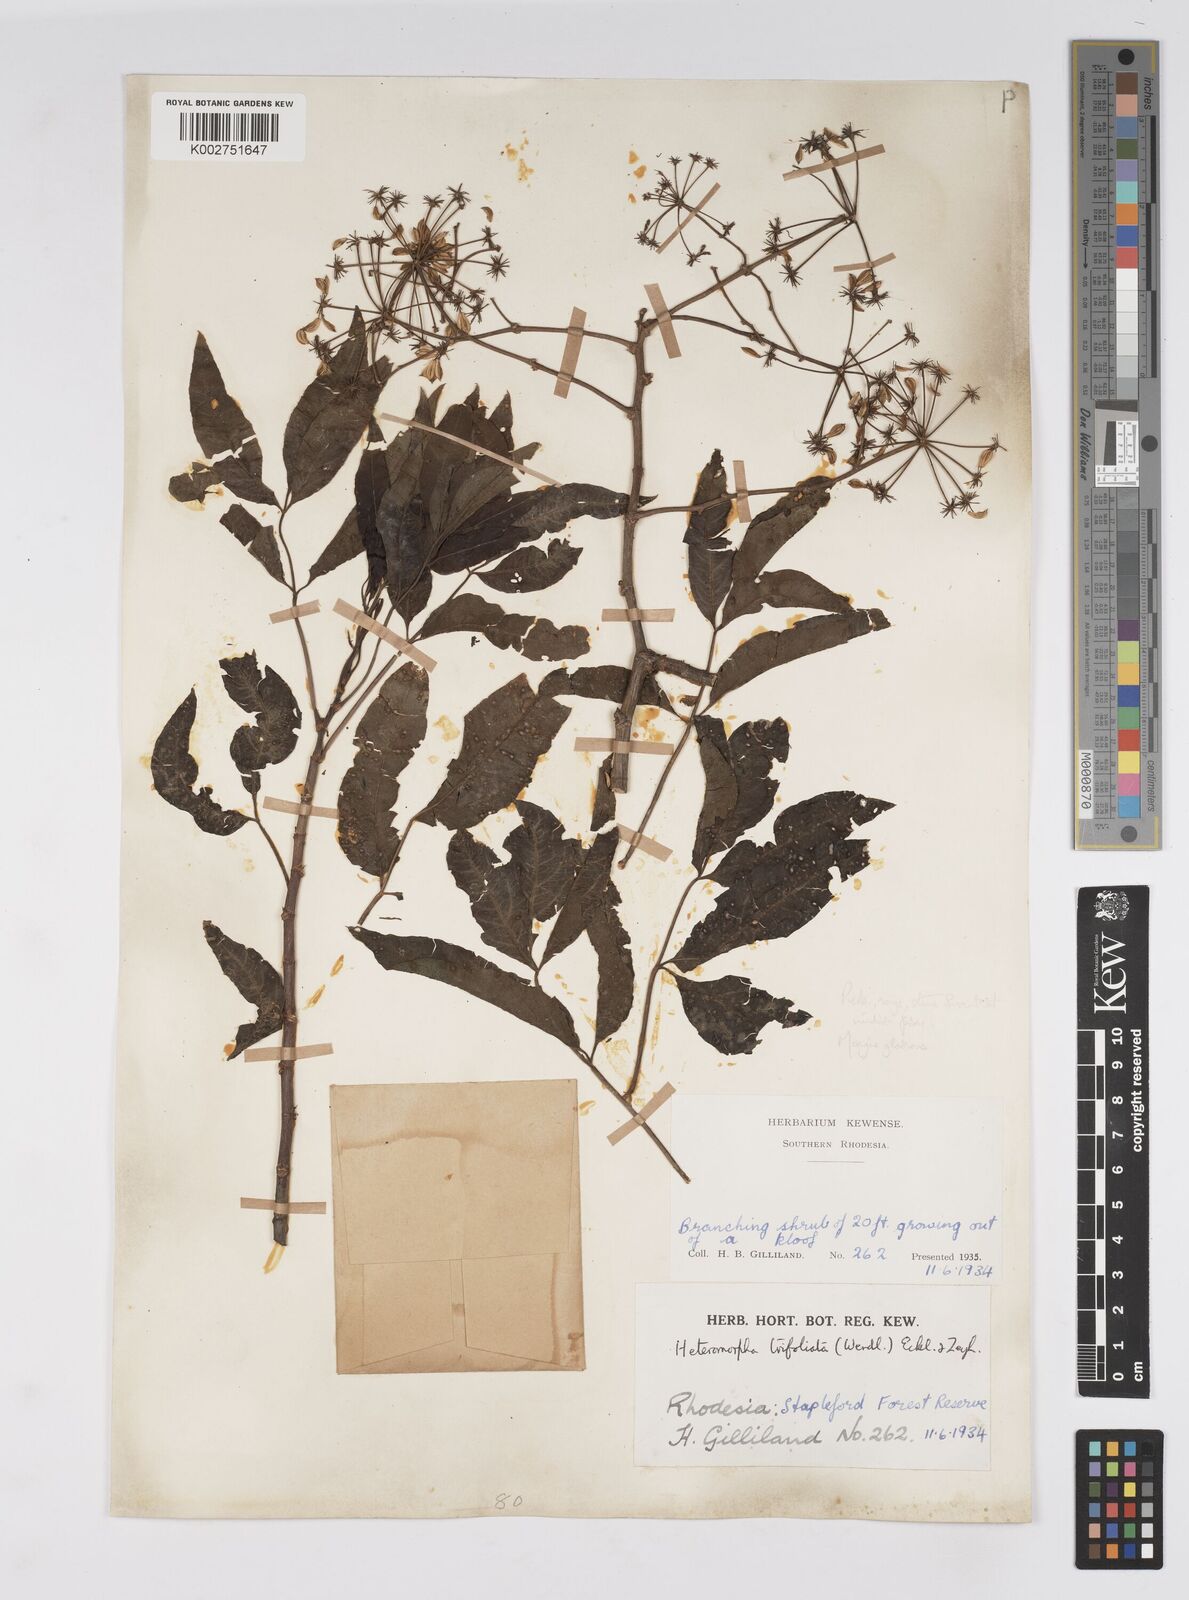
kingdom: Plantae
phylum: Tracheophyta
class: Magnoliopsida
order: Apiales
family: Apiaceae
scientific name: Apiaceae
